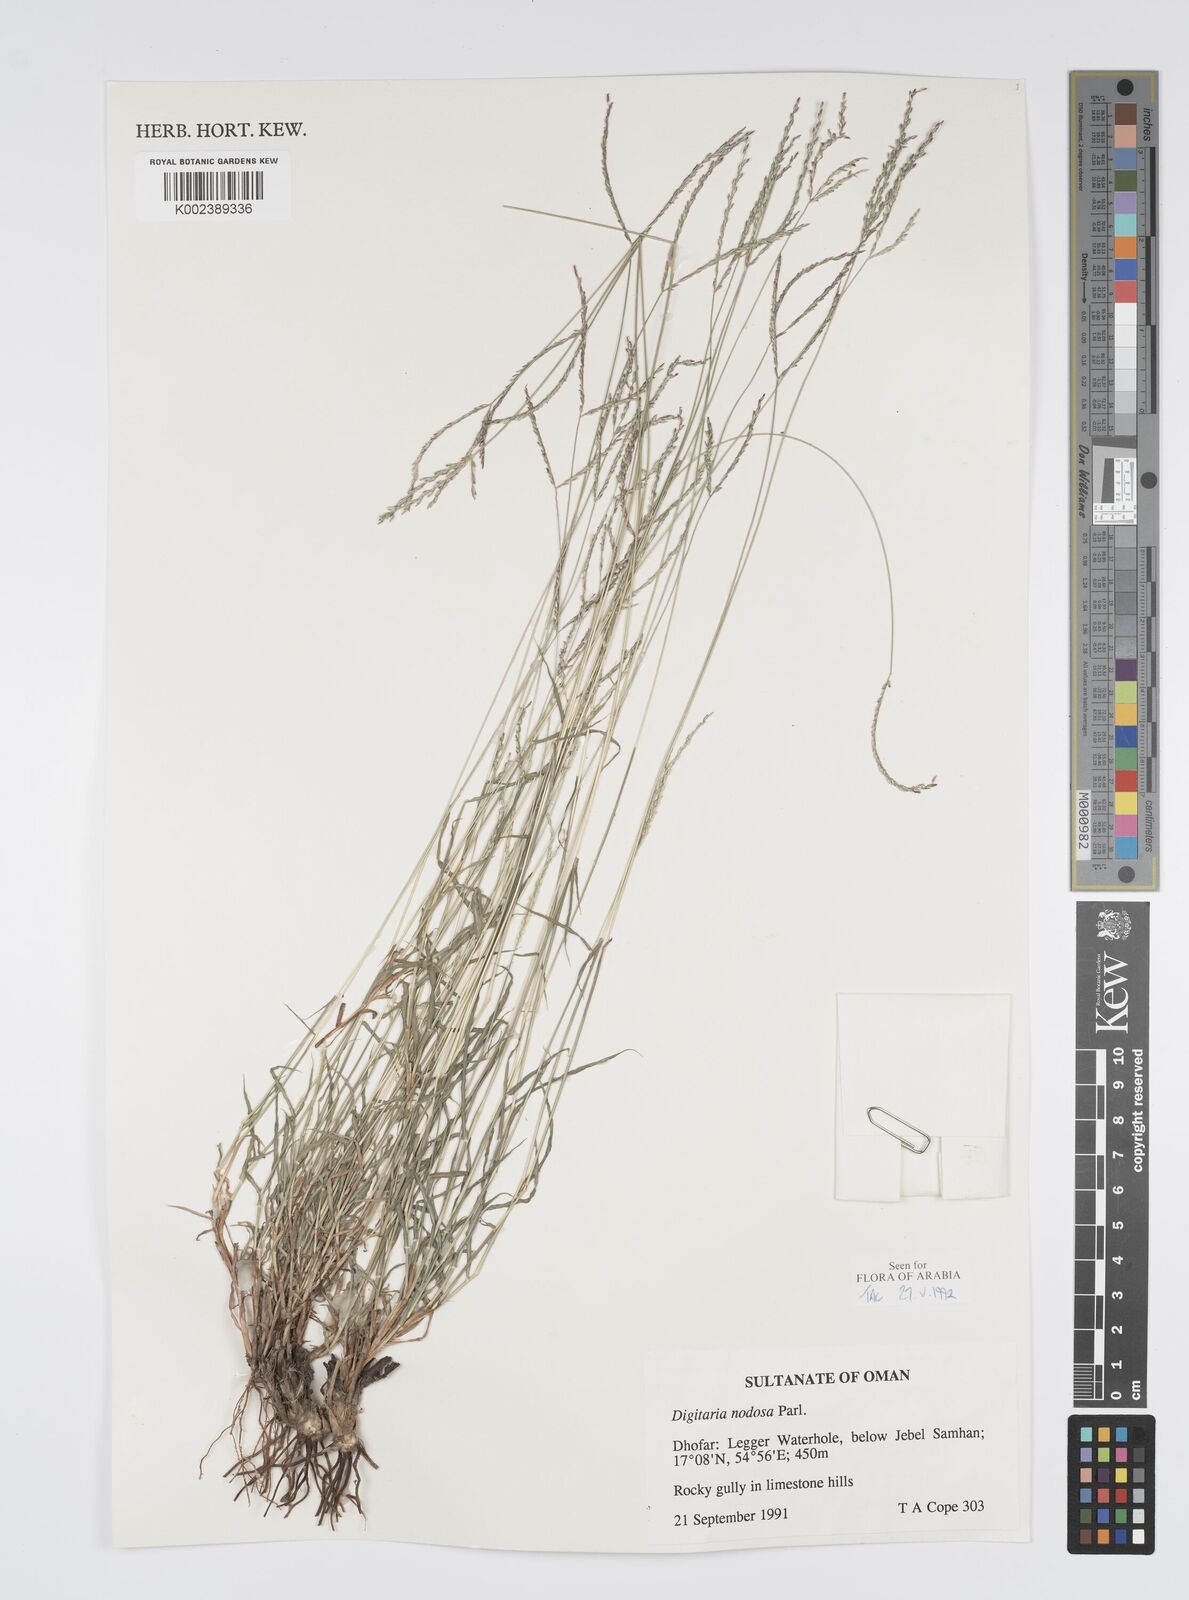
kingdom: Plantae
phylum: Tracheophyta
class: Liliopsida
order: Poales
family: Poaceae
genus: Digitaria
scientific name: Digitaria nodosa
